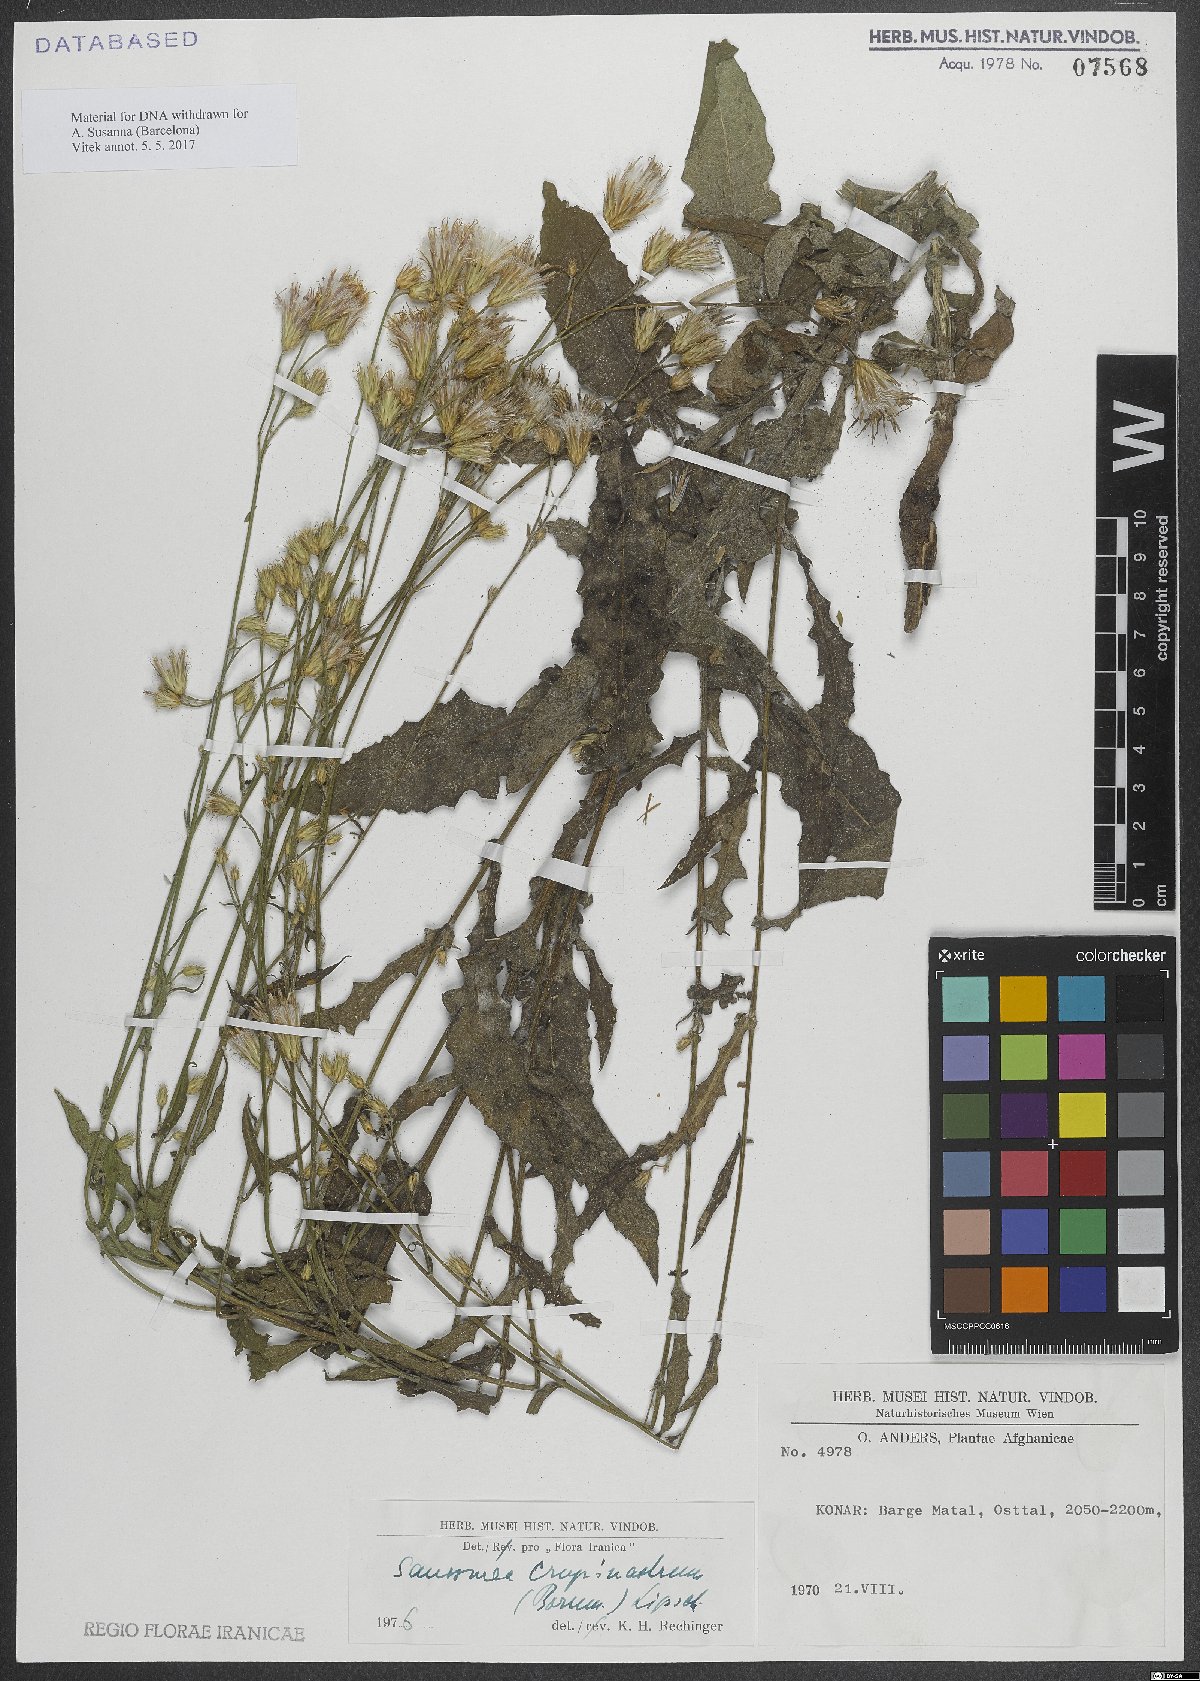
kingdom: Plantae
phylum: Tracheophyta
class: Magnoliopsida
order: Asterales
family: Asteraceae
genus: Saussurea
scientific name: Saussurea crupinastrum
